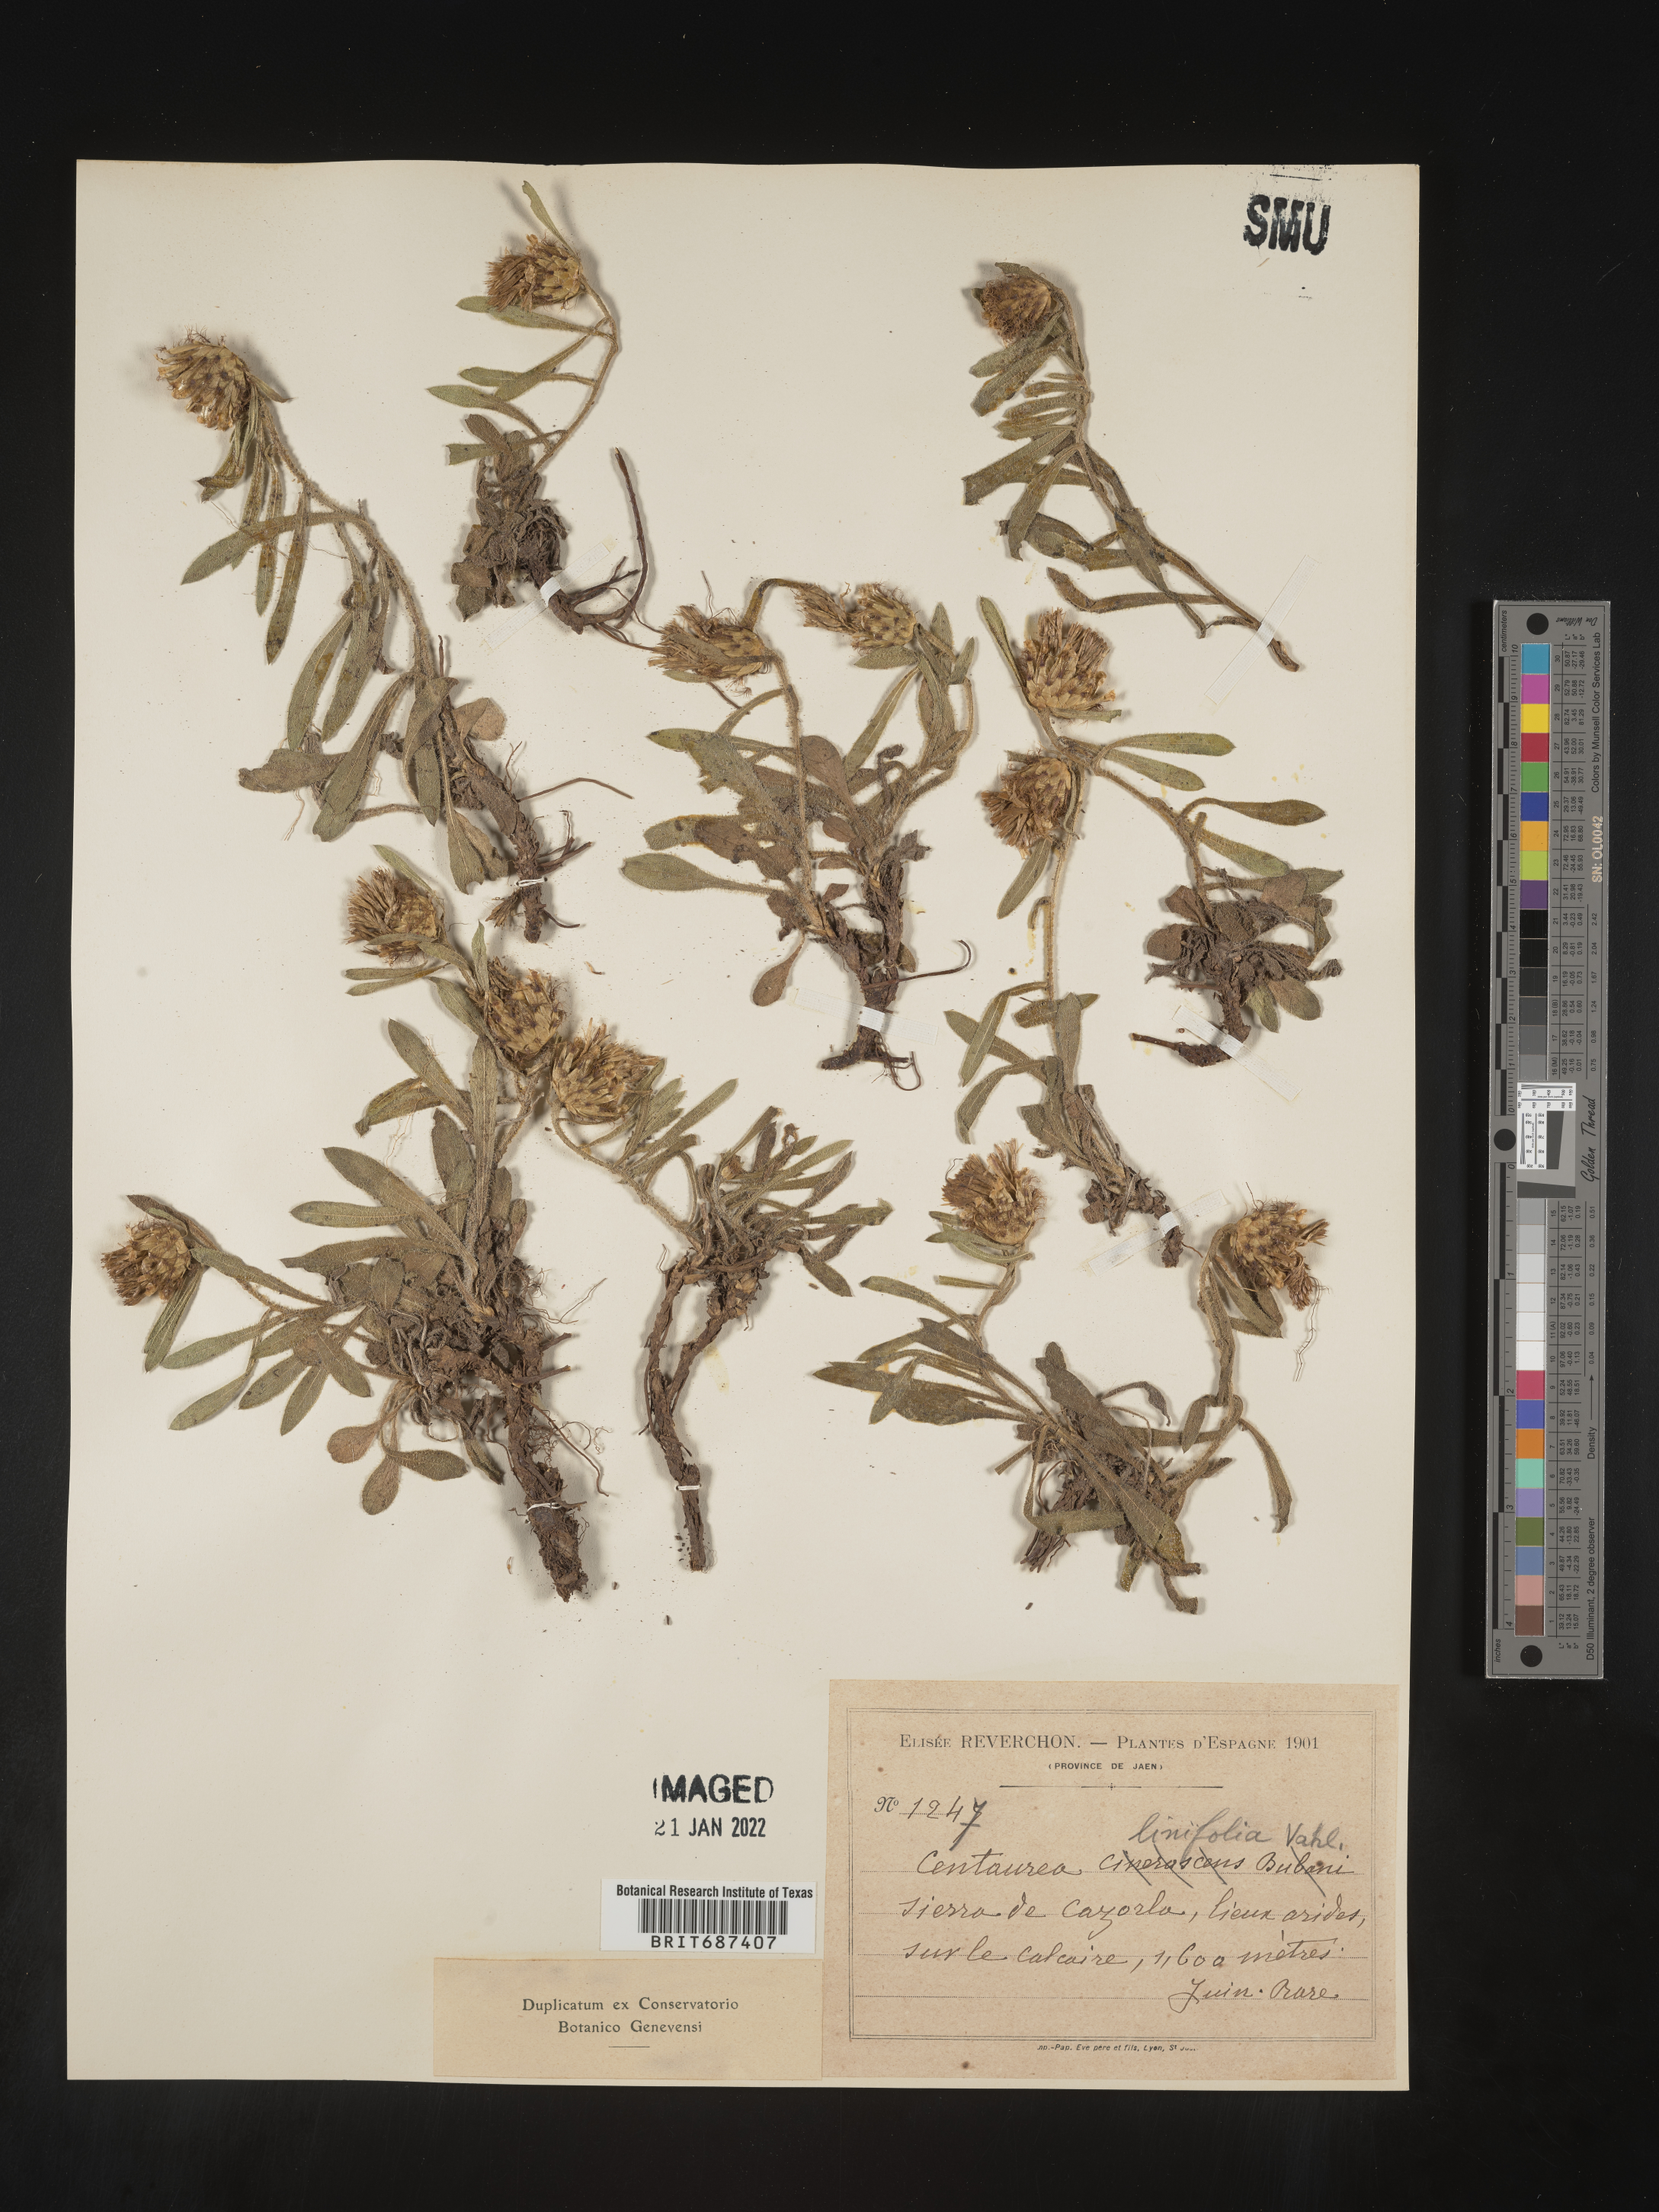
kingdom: Plantae
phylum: Tracheophyta
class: Magnoliopsida
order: Asterales
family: Asteraceae
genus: Centaurea
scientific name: Centaurea
